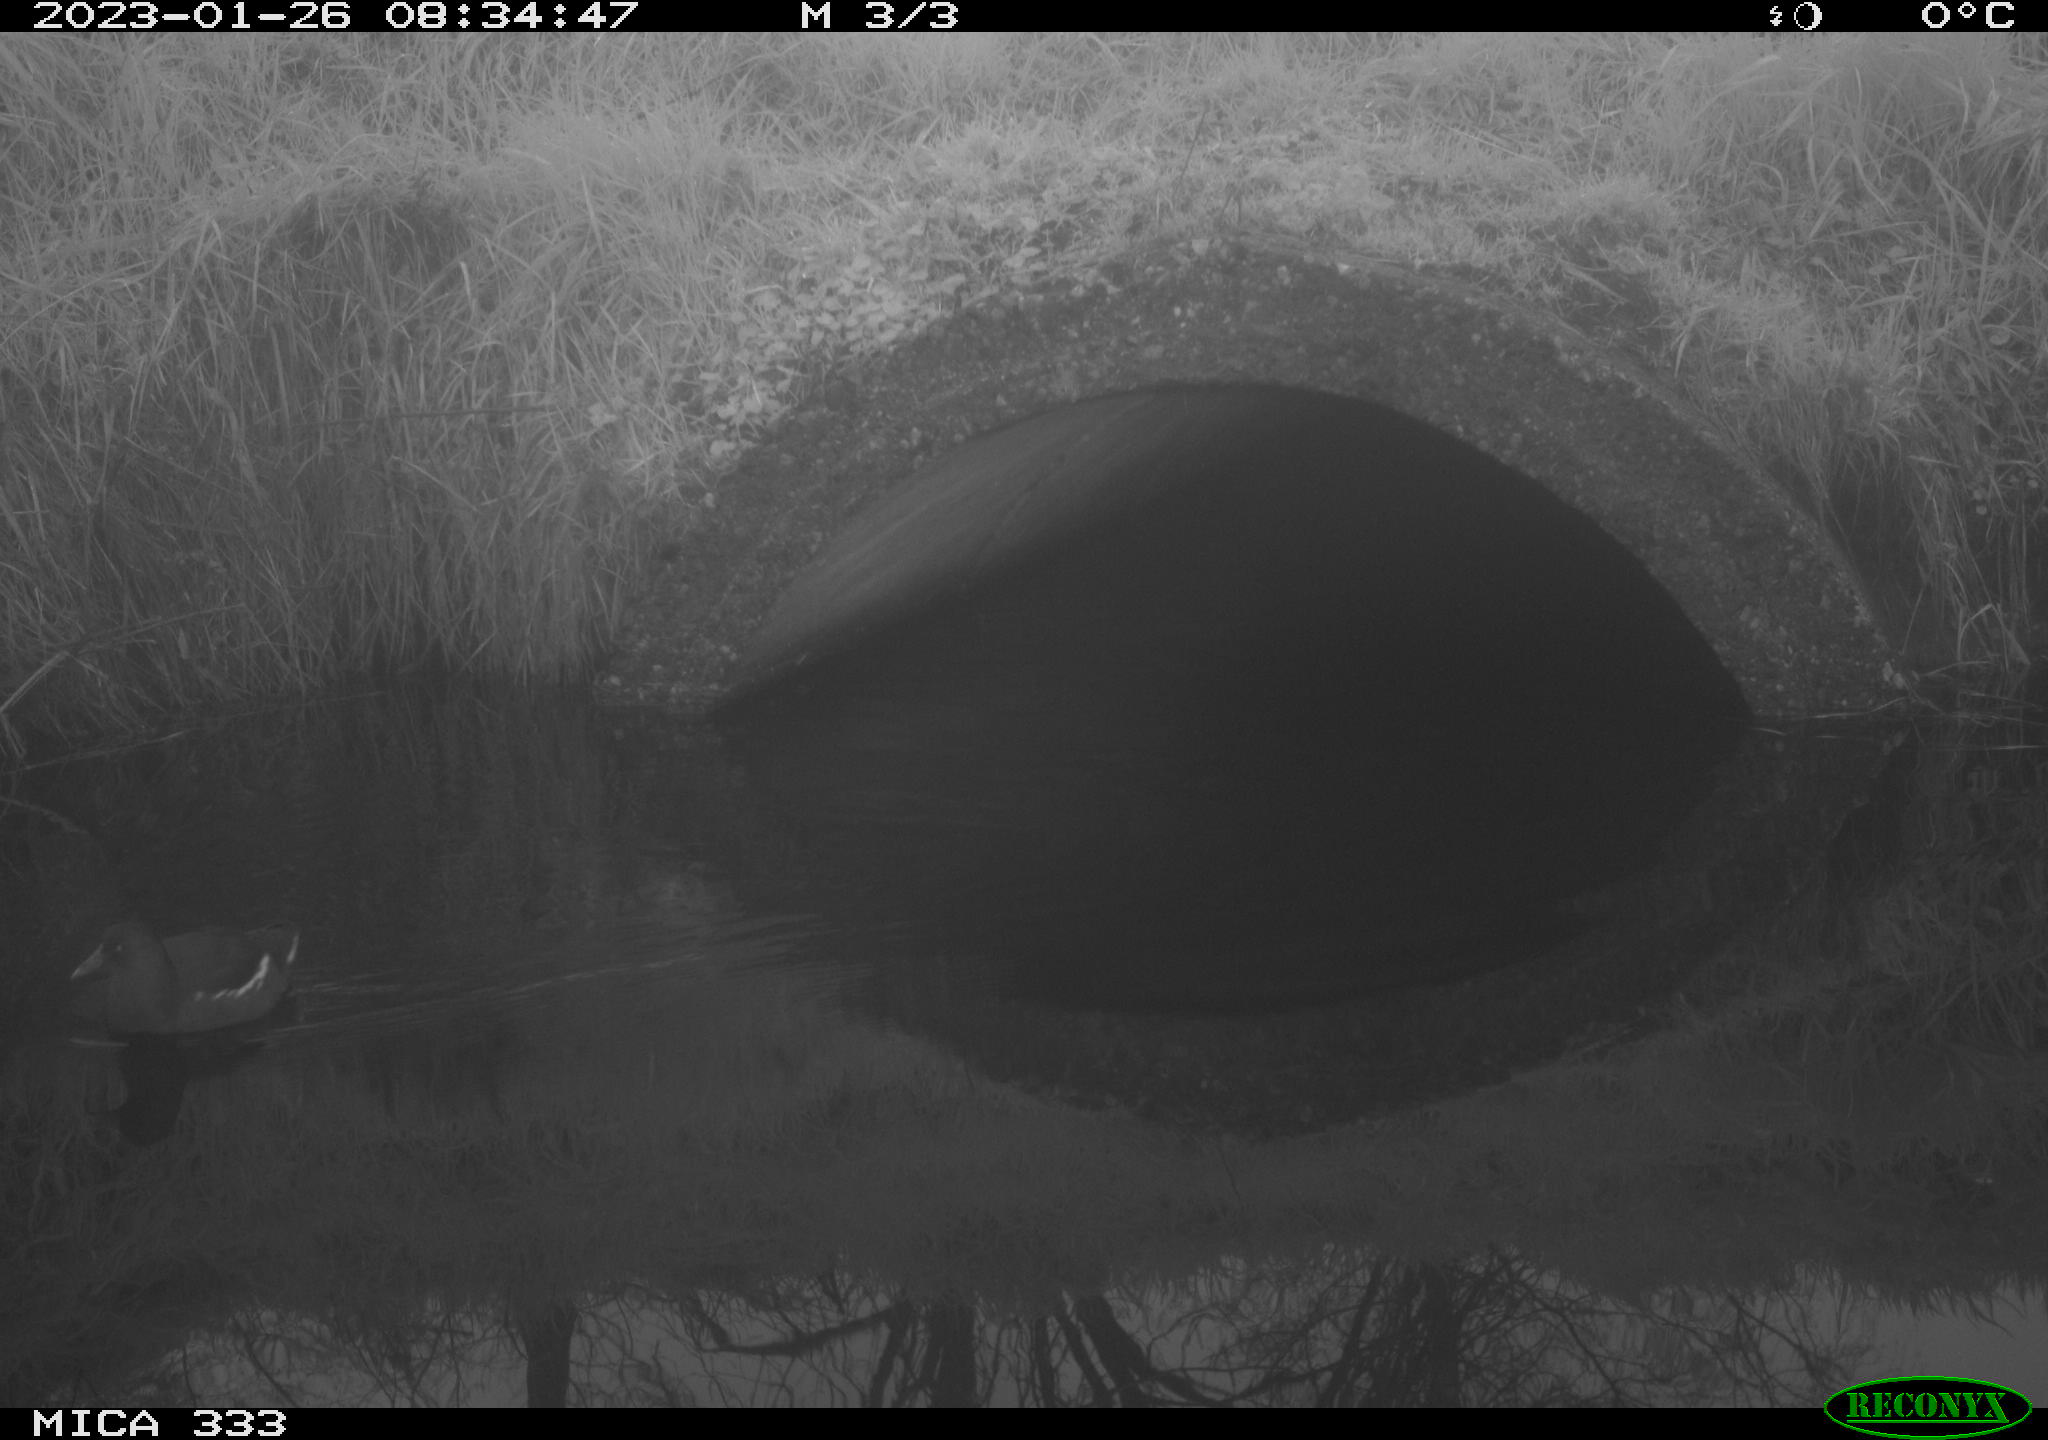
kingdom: Animalia
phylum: Chordata
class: Aves
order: Gruiformes
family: Rallidae
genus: Gallinula
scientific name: Gallinula chloropus
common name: Common moorhen
